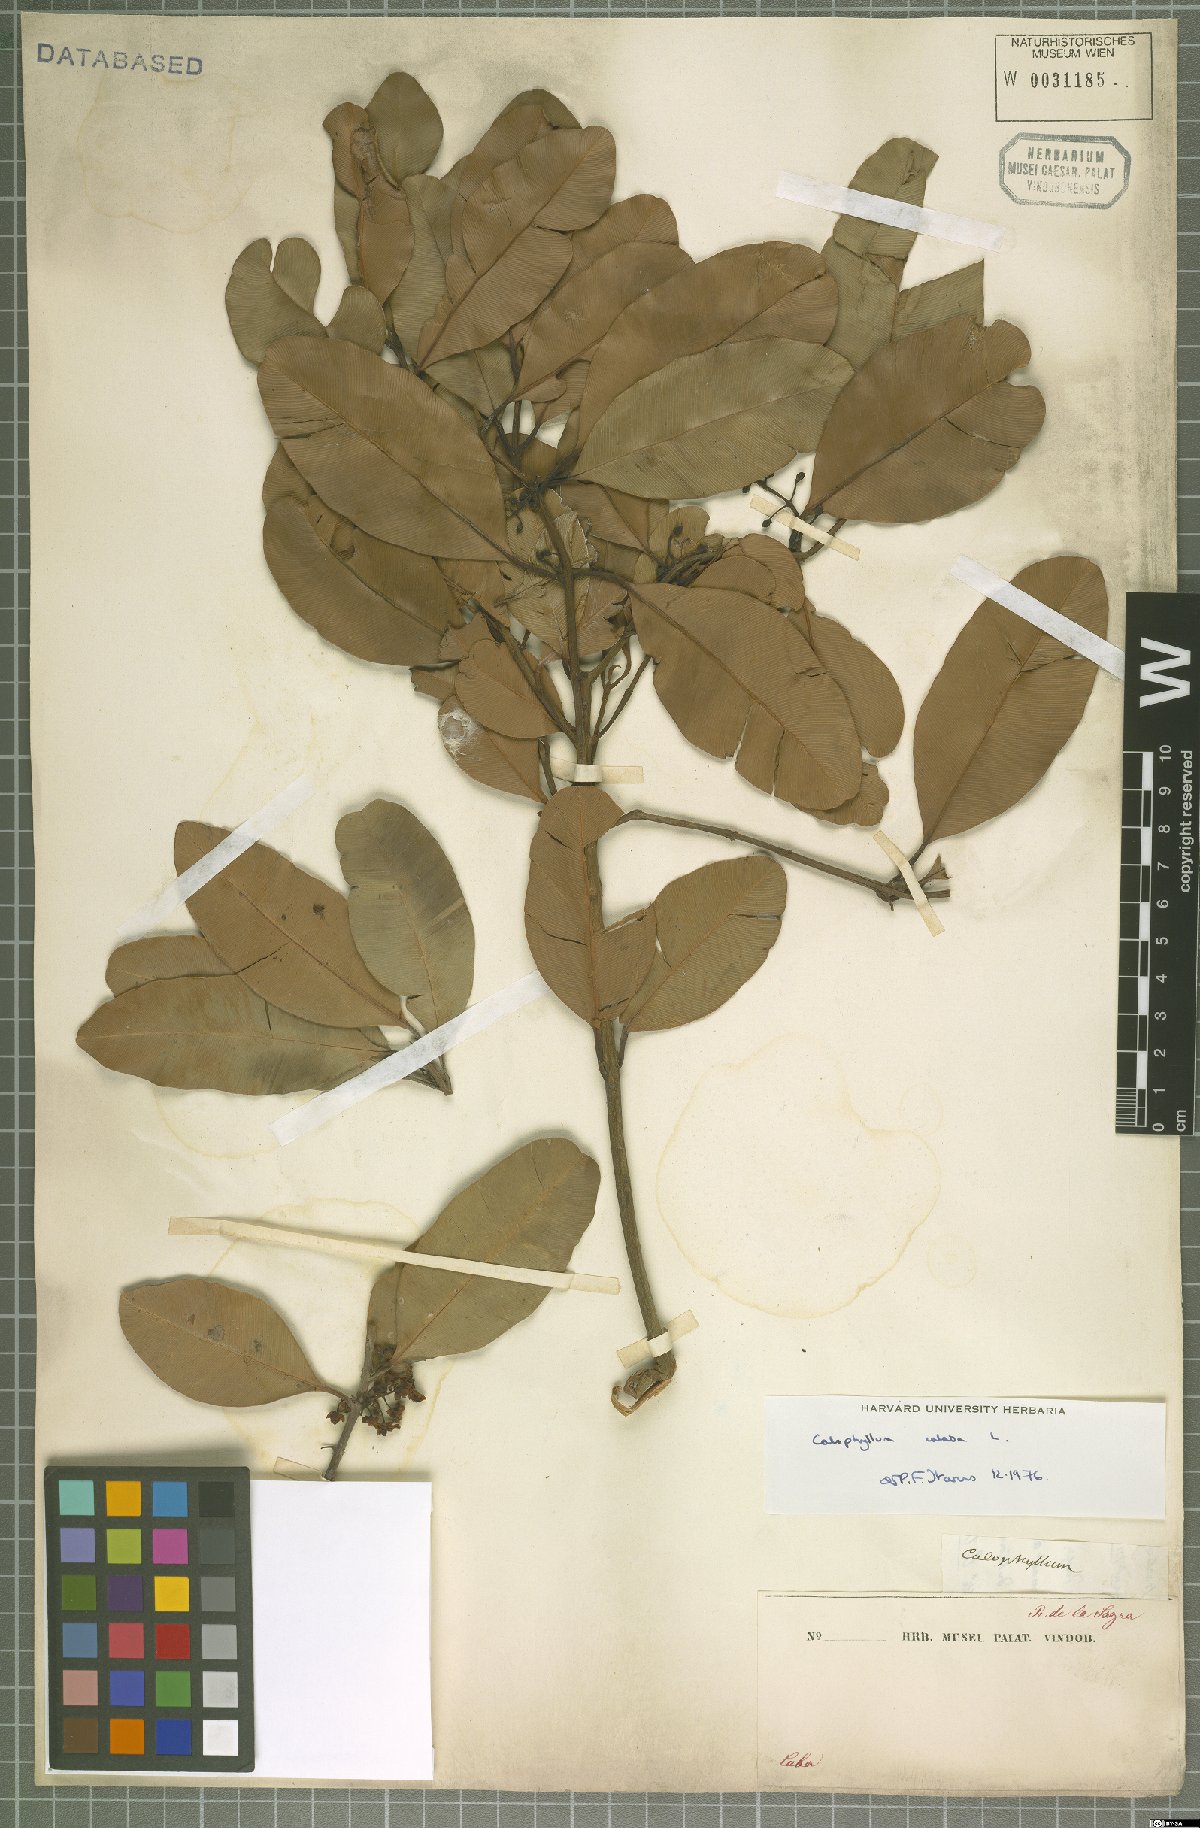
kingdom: Plantae
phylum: Tracheophyta
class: Magnoliopsida
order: Malpighiales
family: Calophyllaceae
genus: Calophyllum
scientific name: Calophyllum calaba
